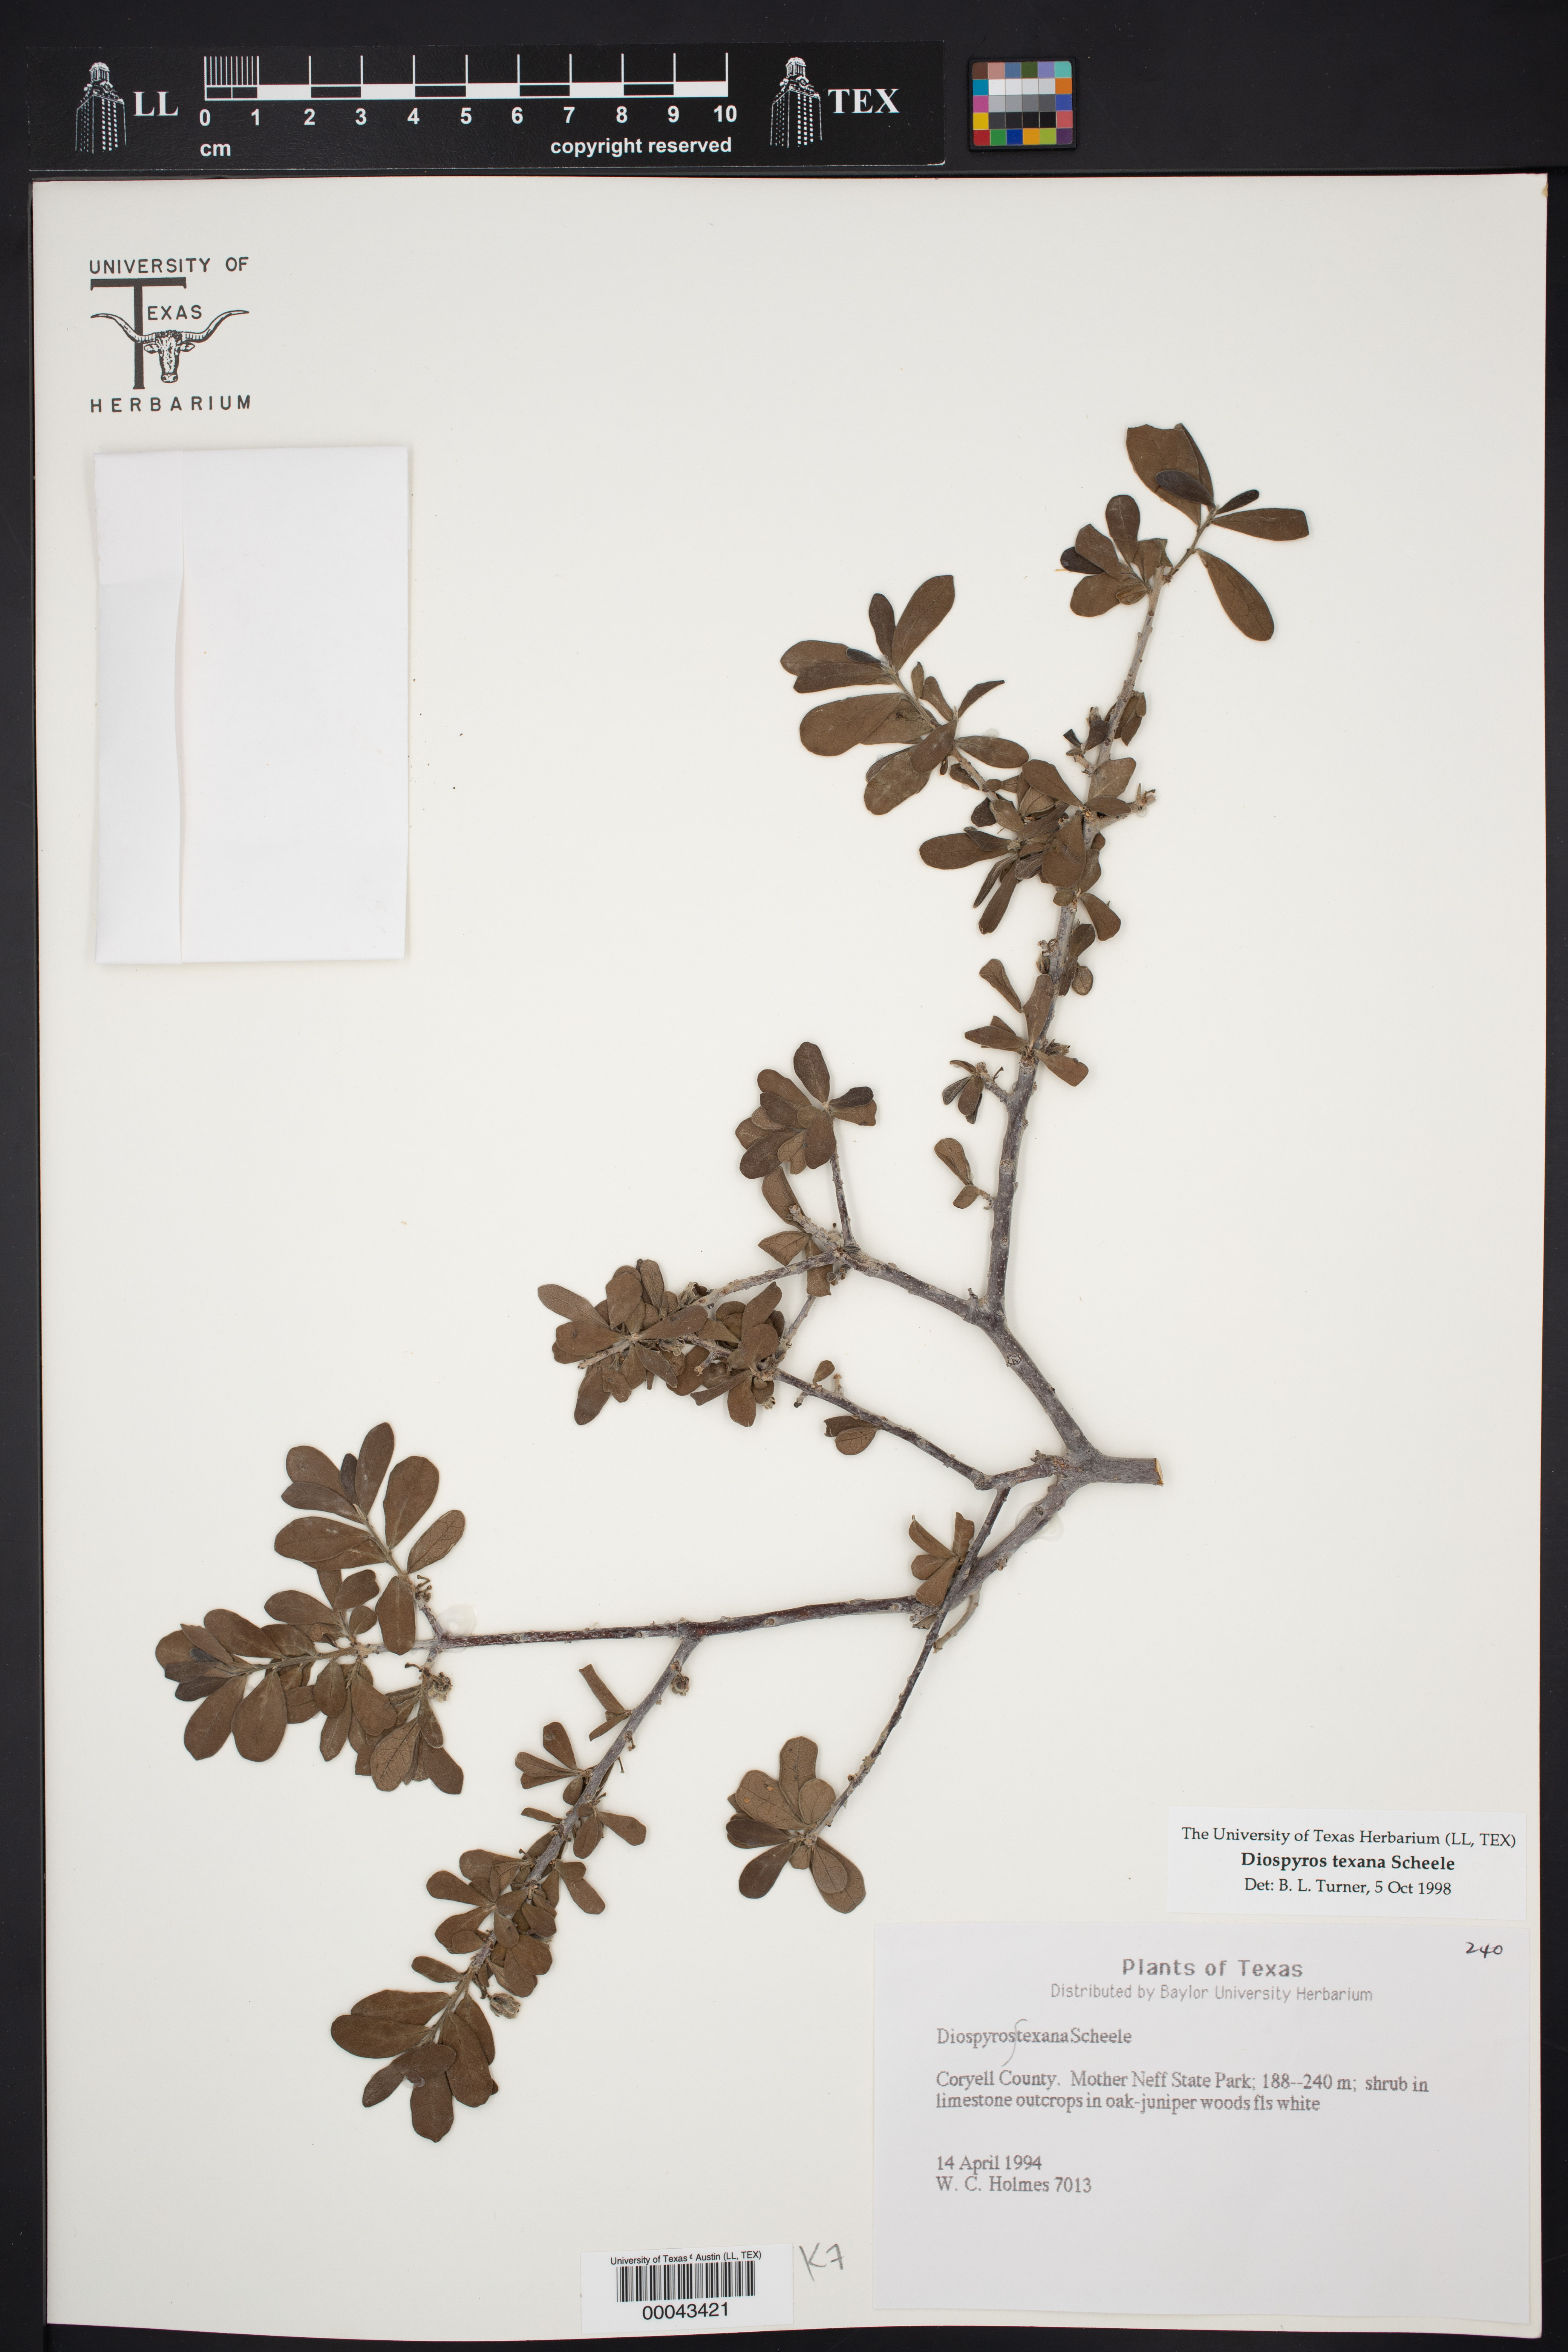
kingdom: Plantae
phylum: Tracheophyta
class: Magnoliopsida
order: Ericales
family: Ebenaceae
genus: Diospyros
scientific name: Diospyros texana
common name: Texas persimmon
